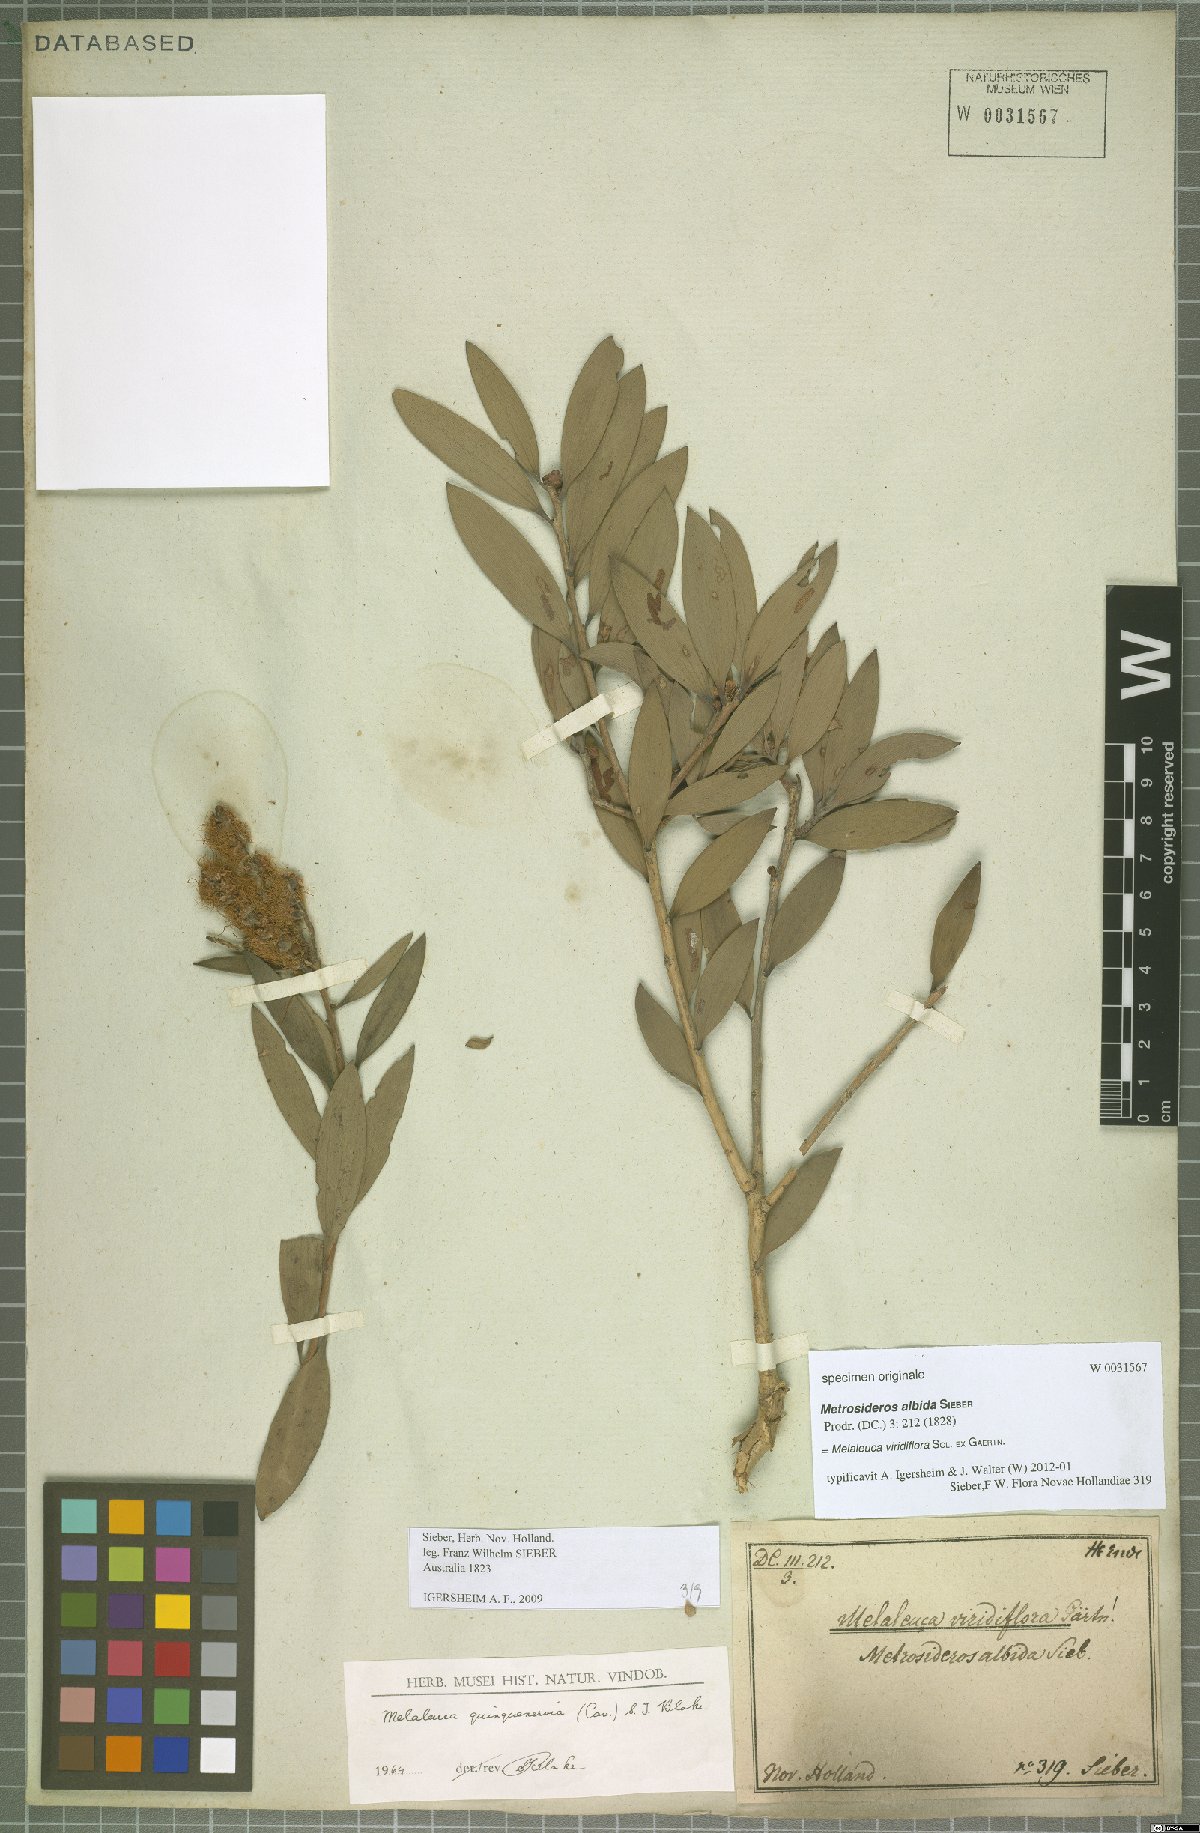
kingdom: Plantae
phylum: Tracheophyta
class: Magnoliopsida
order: Myrtales
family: Myrtaceae
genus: Melaleuca
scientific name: Melaleuca viridiflora
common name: Brown-leaved paperbark
